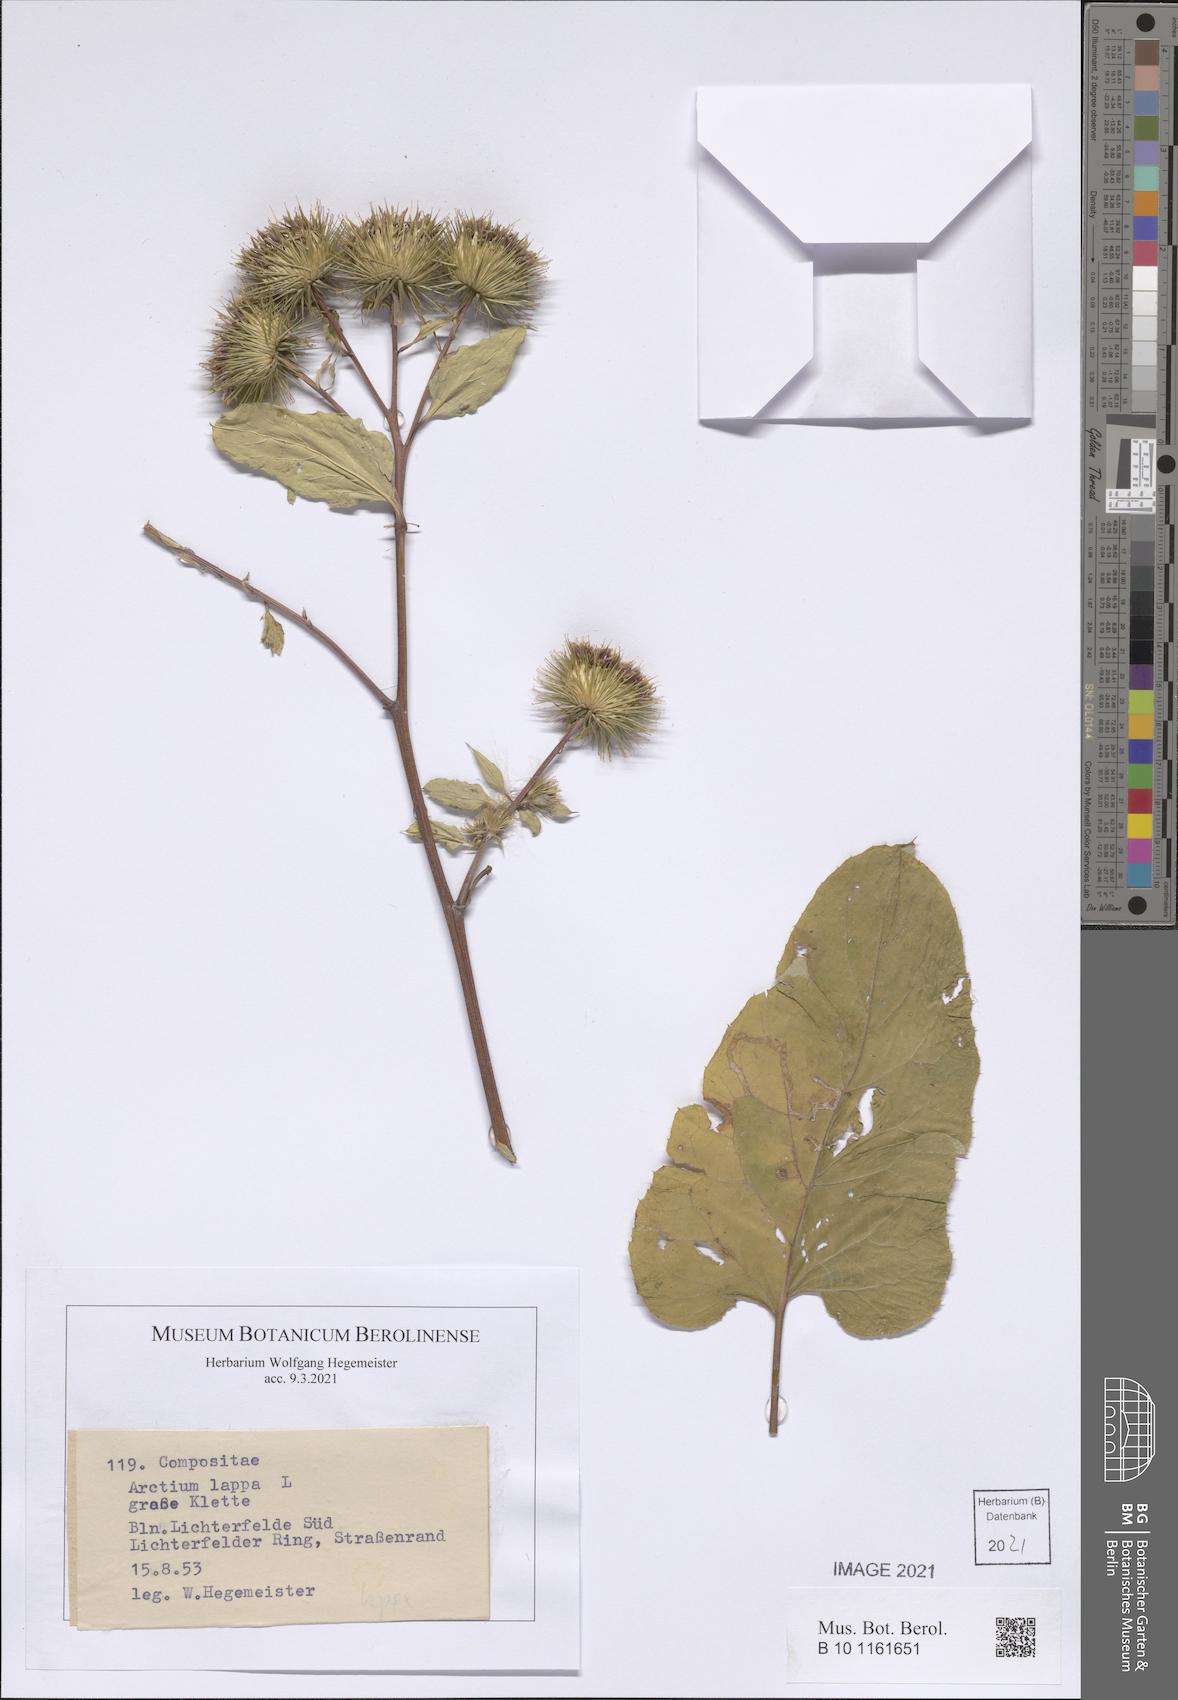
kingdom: Plantae
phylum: Tracheophyta
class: Magnoliopsida
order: Asterales
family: Asteraceae
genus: Arctium
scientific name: Arctium lappa
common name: Greater burdock
